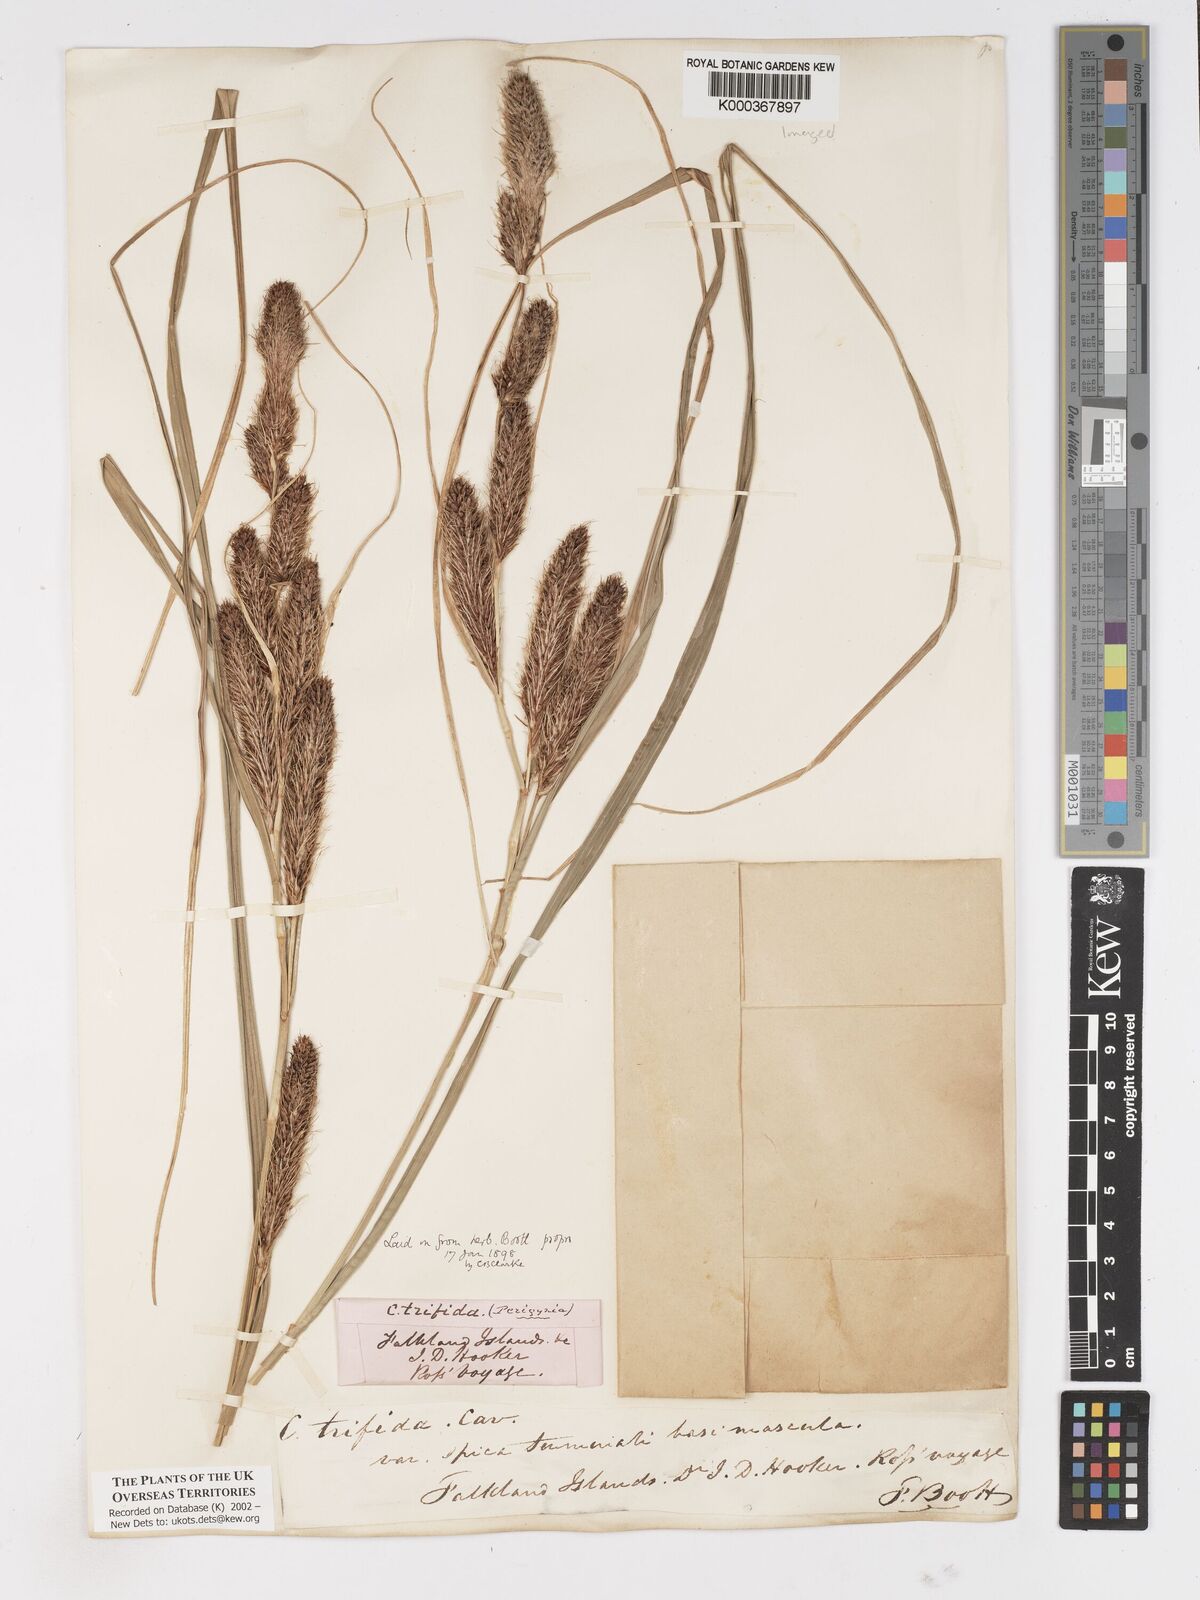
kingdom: Plantae
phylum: Tracheophyta
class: Liliopsida
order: Poales
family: Cyperaceae
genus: Carex
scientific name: Carex trifida
